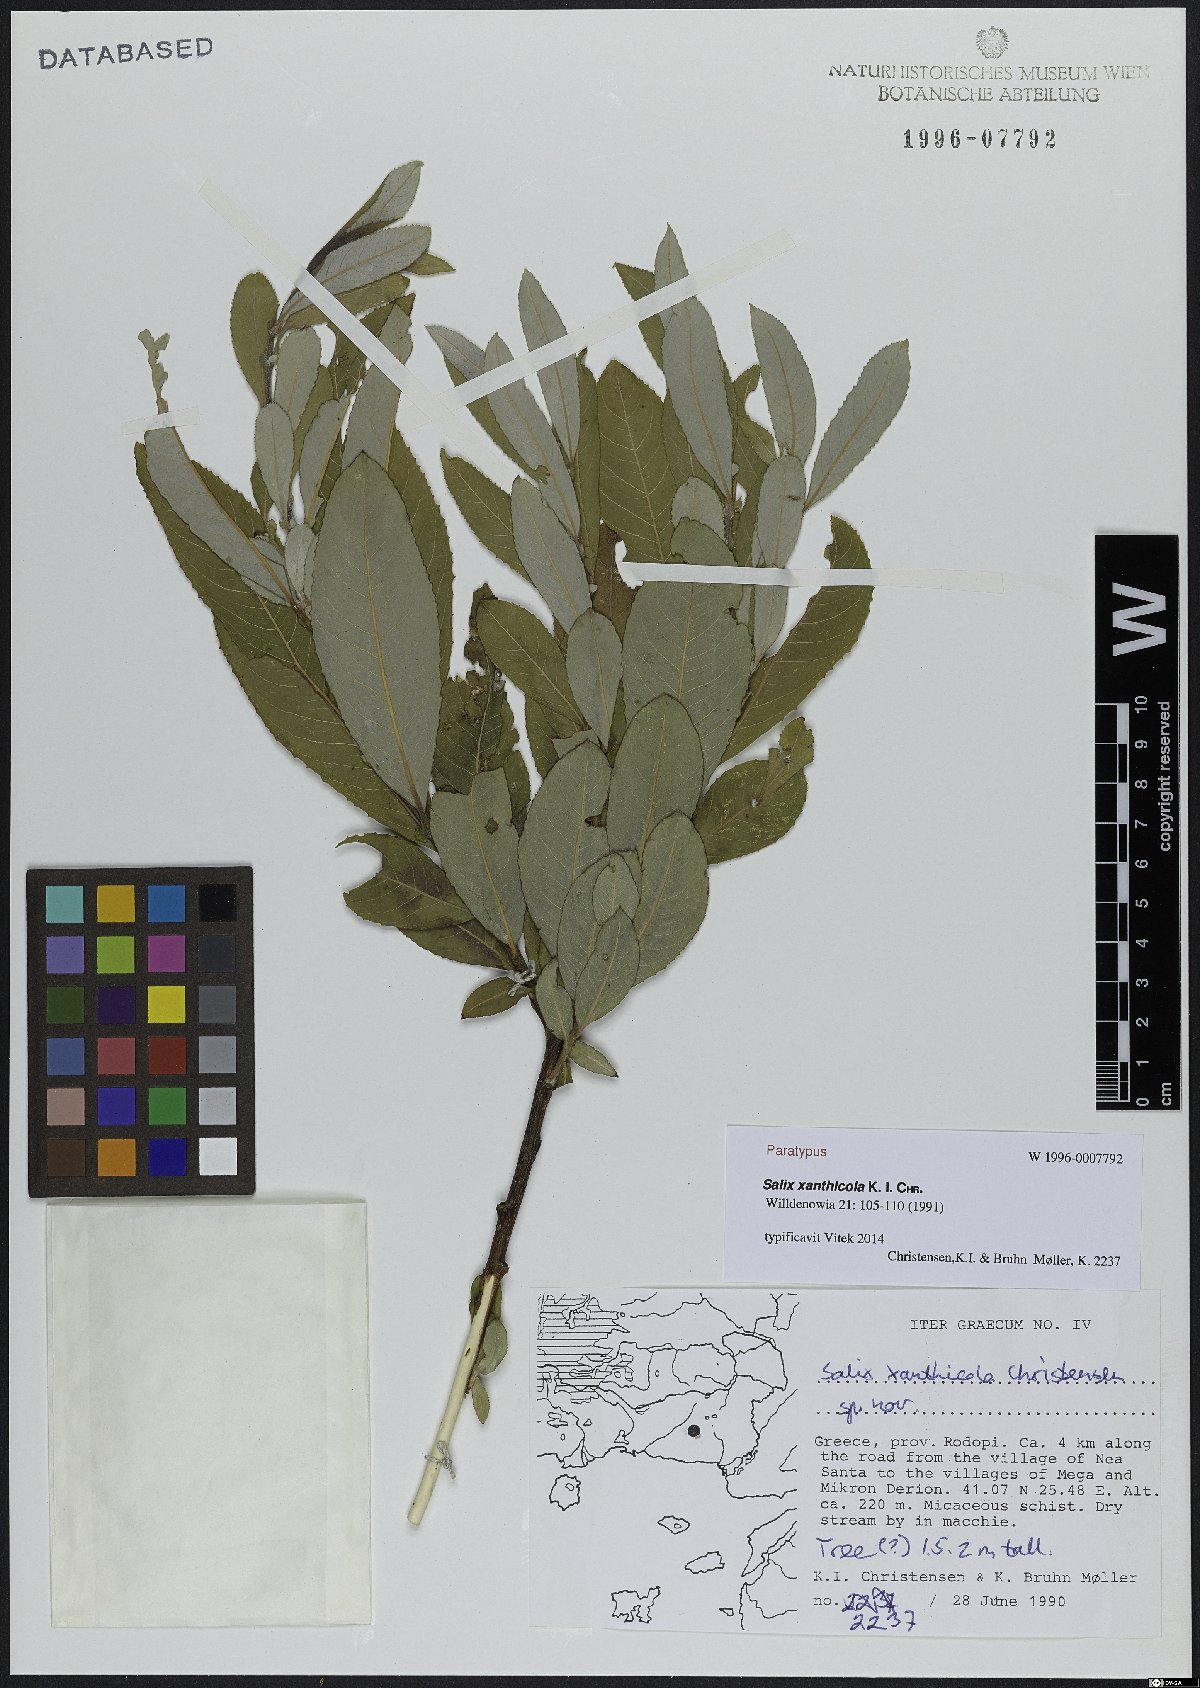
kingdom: Plantae
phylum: Tracheophyta
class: Magnoliopsida
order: Malpighiales
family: Salicaceae
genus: Salix
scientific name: Salix xanthicola
